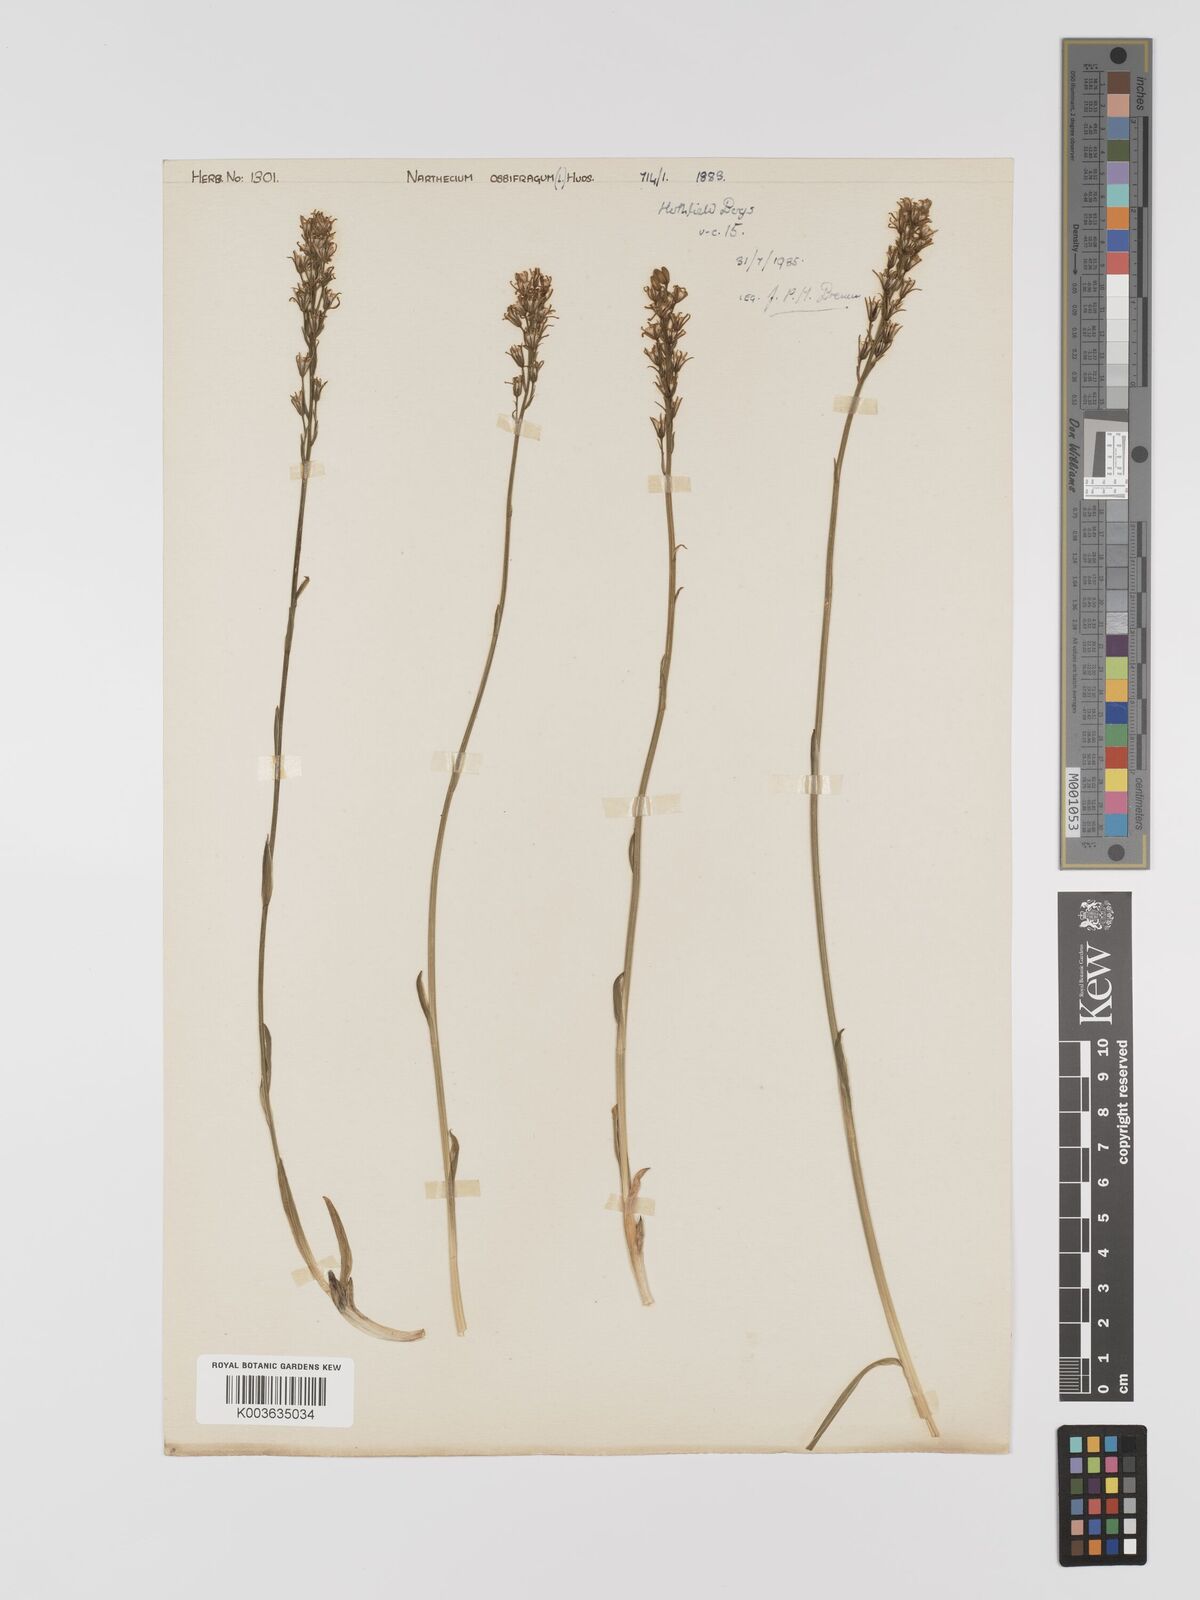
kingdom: Plantae
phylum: Tracheophyta
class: Liliopsida
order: Dioscoreales
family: Nartheciaceae
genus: Narthecium
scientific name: Narthecium
